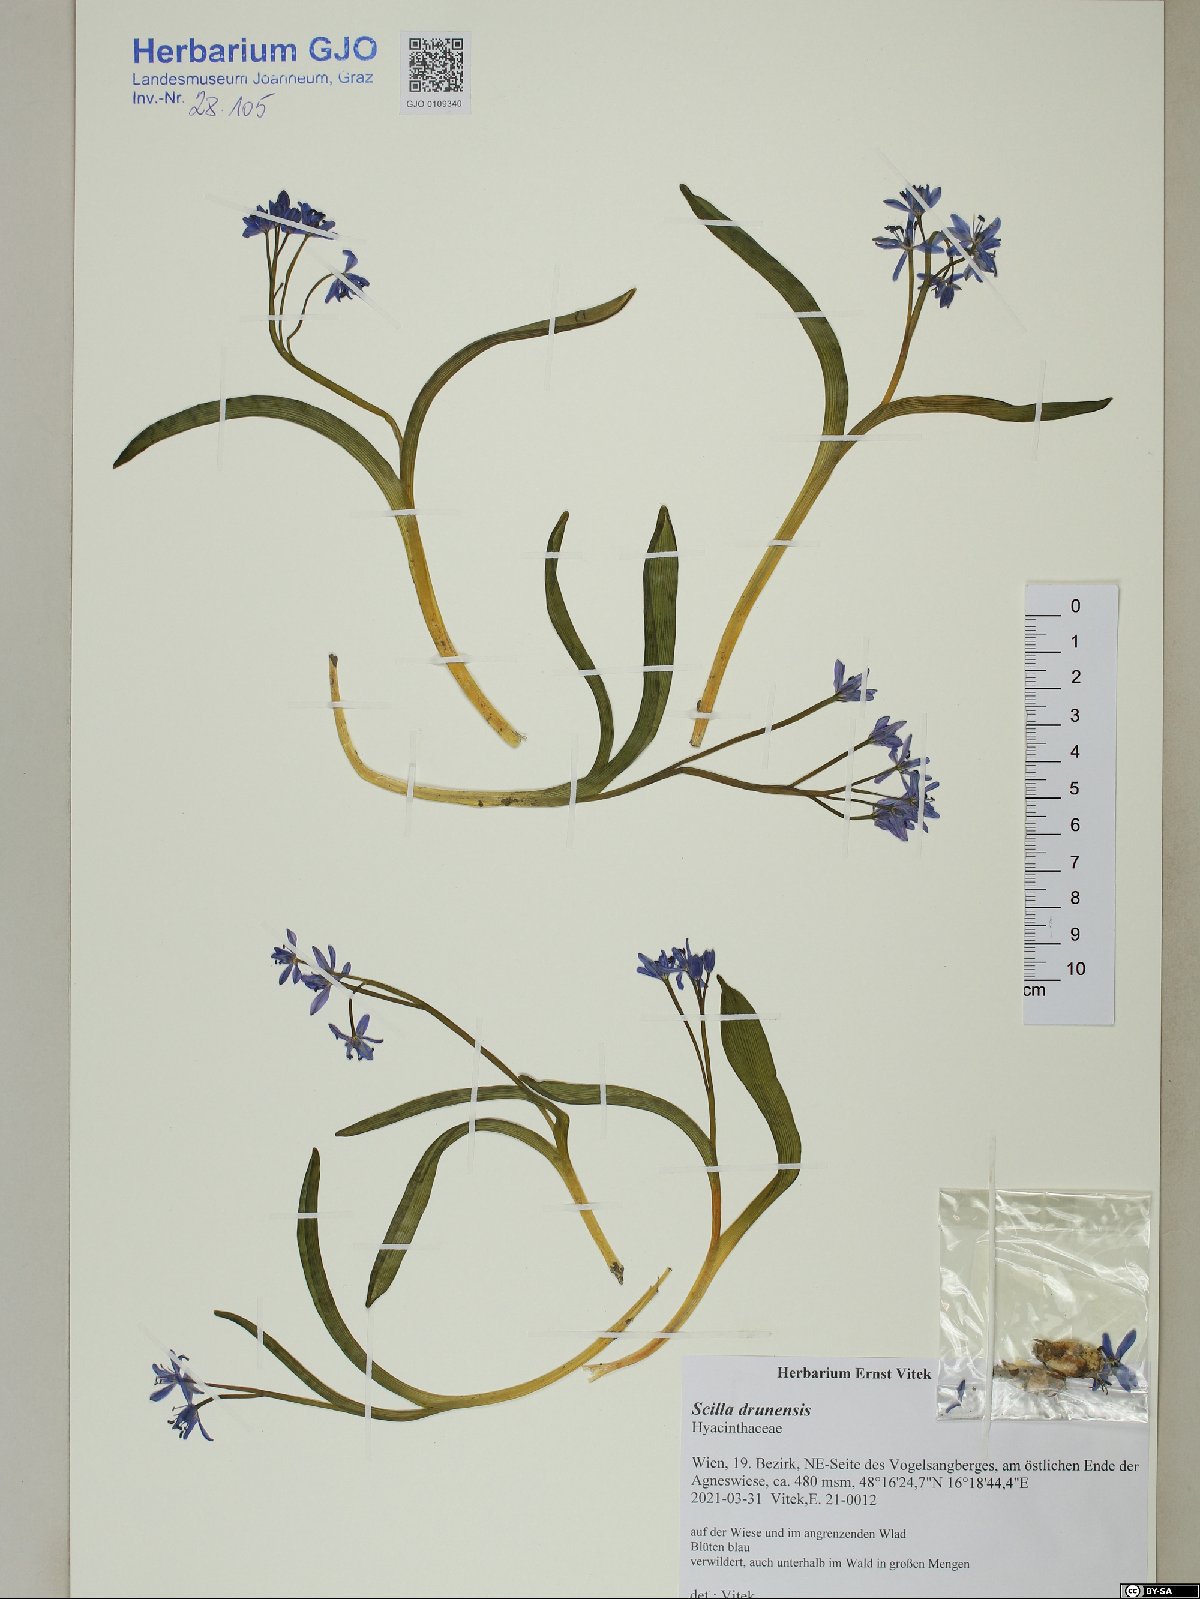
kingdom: Plantae
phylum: Tracheophyta
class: Liliopsida
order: Asparagales
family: Asparagaceae
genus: Scilla
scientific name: Scilla bifolia
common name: Alpine squill
